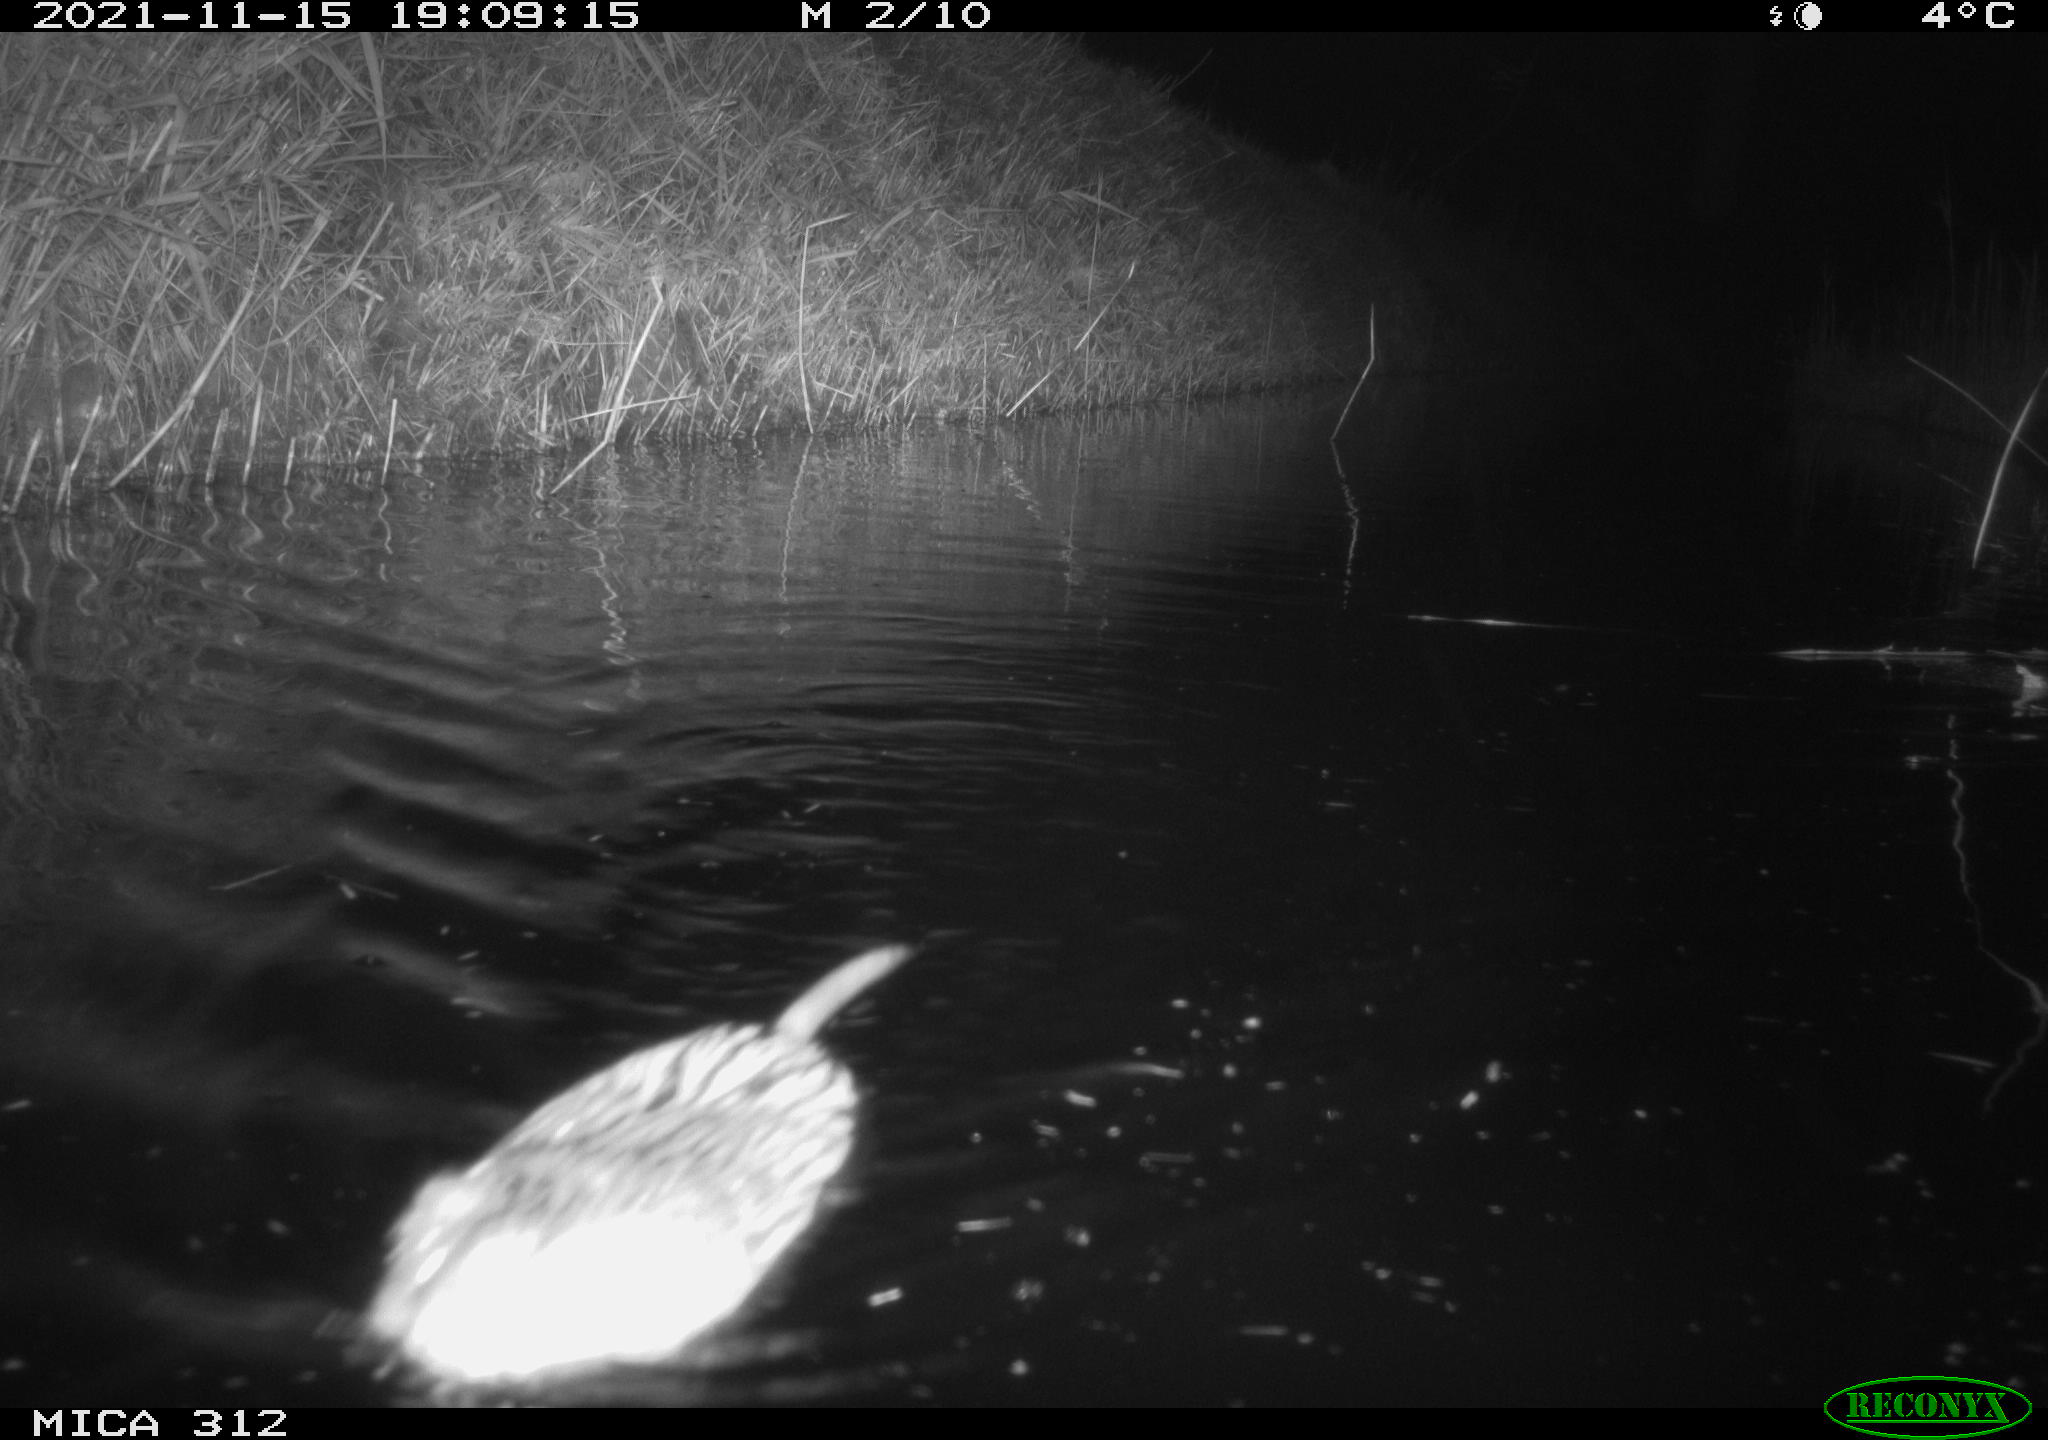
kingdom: Animalia
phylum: Chordata
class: Mammalia
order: Rodentia
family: Cricetidae
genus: Ondatra
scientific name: Ondatra zibethicus
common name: Muskrat
